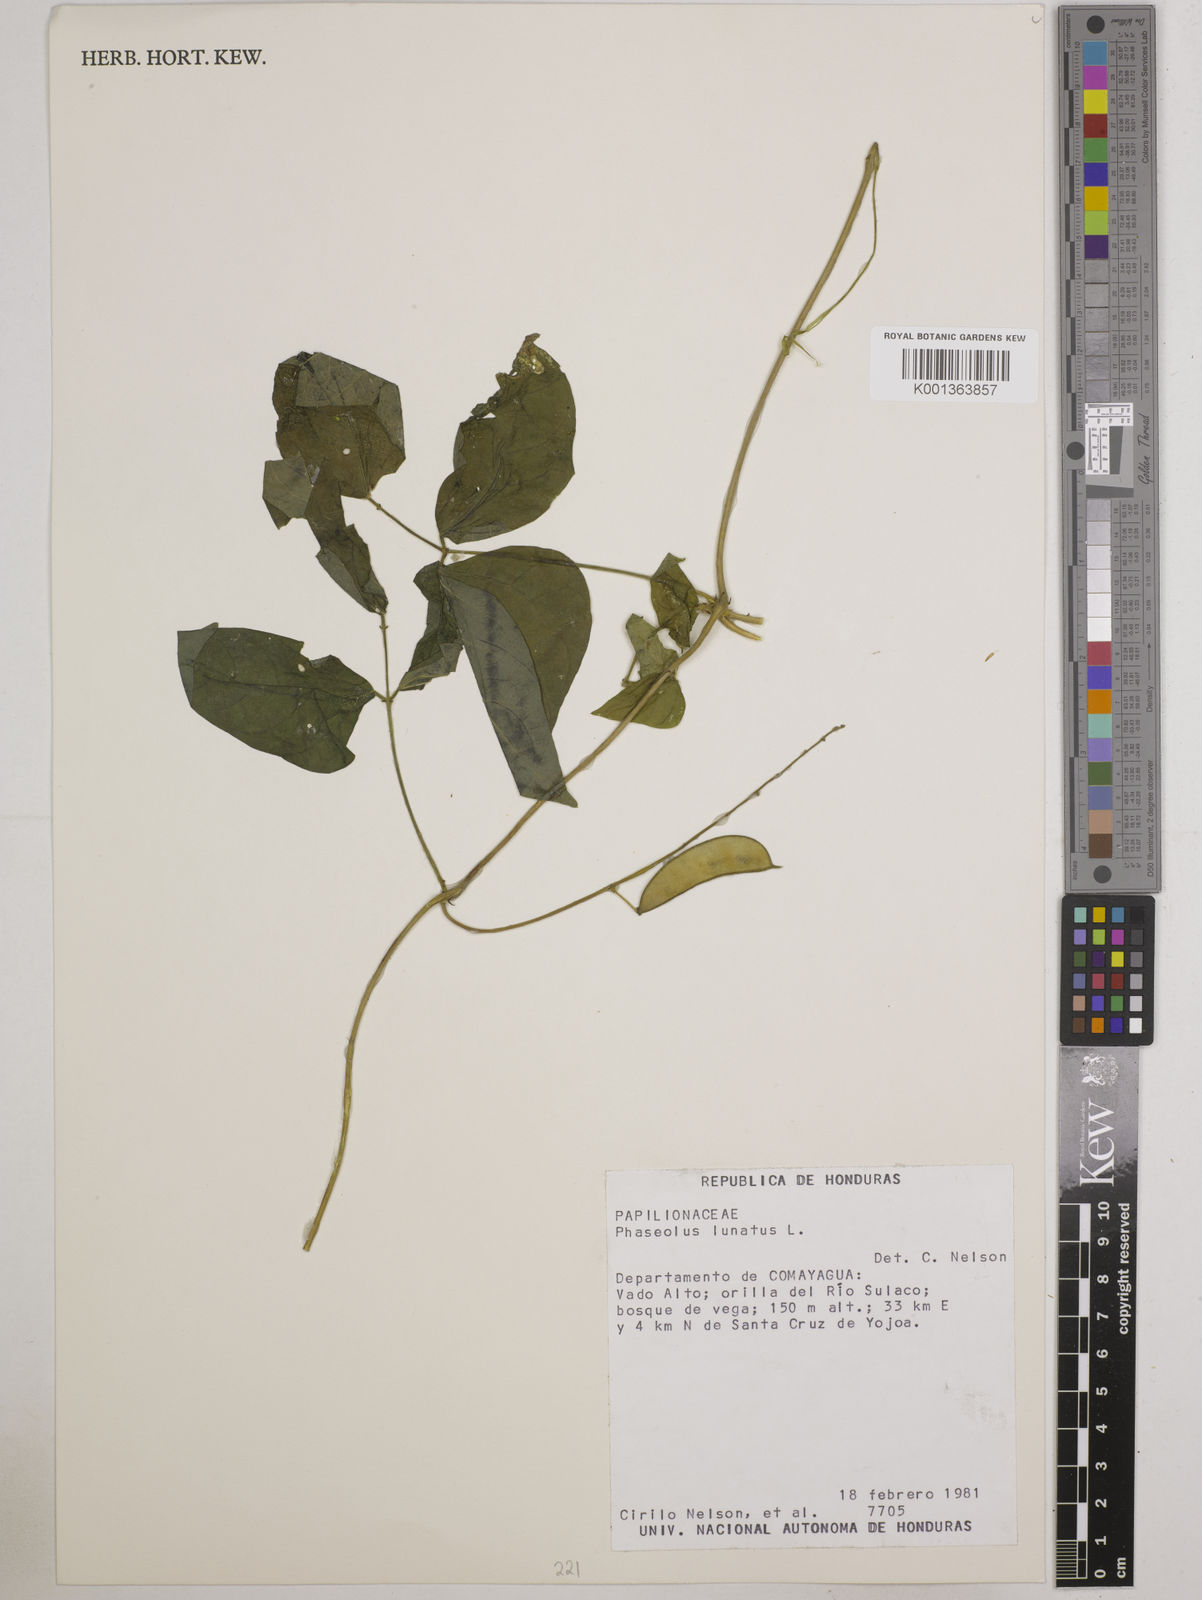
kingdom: Plantae
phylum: Tracheophyta
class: Magnoliopsida
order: Fabales
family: Fabaceae
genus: Phaseolus
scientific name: Phaseolus lunatus
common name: Sieva bean
